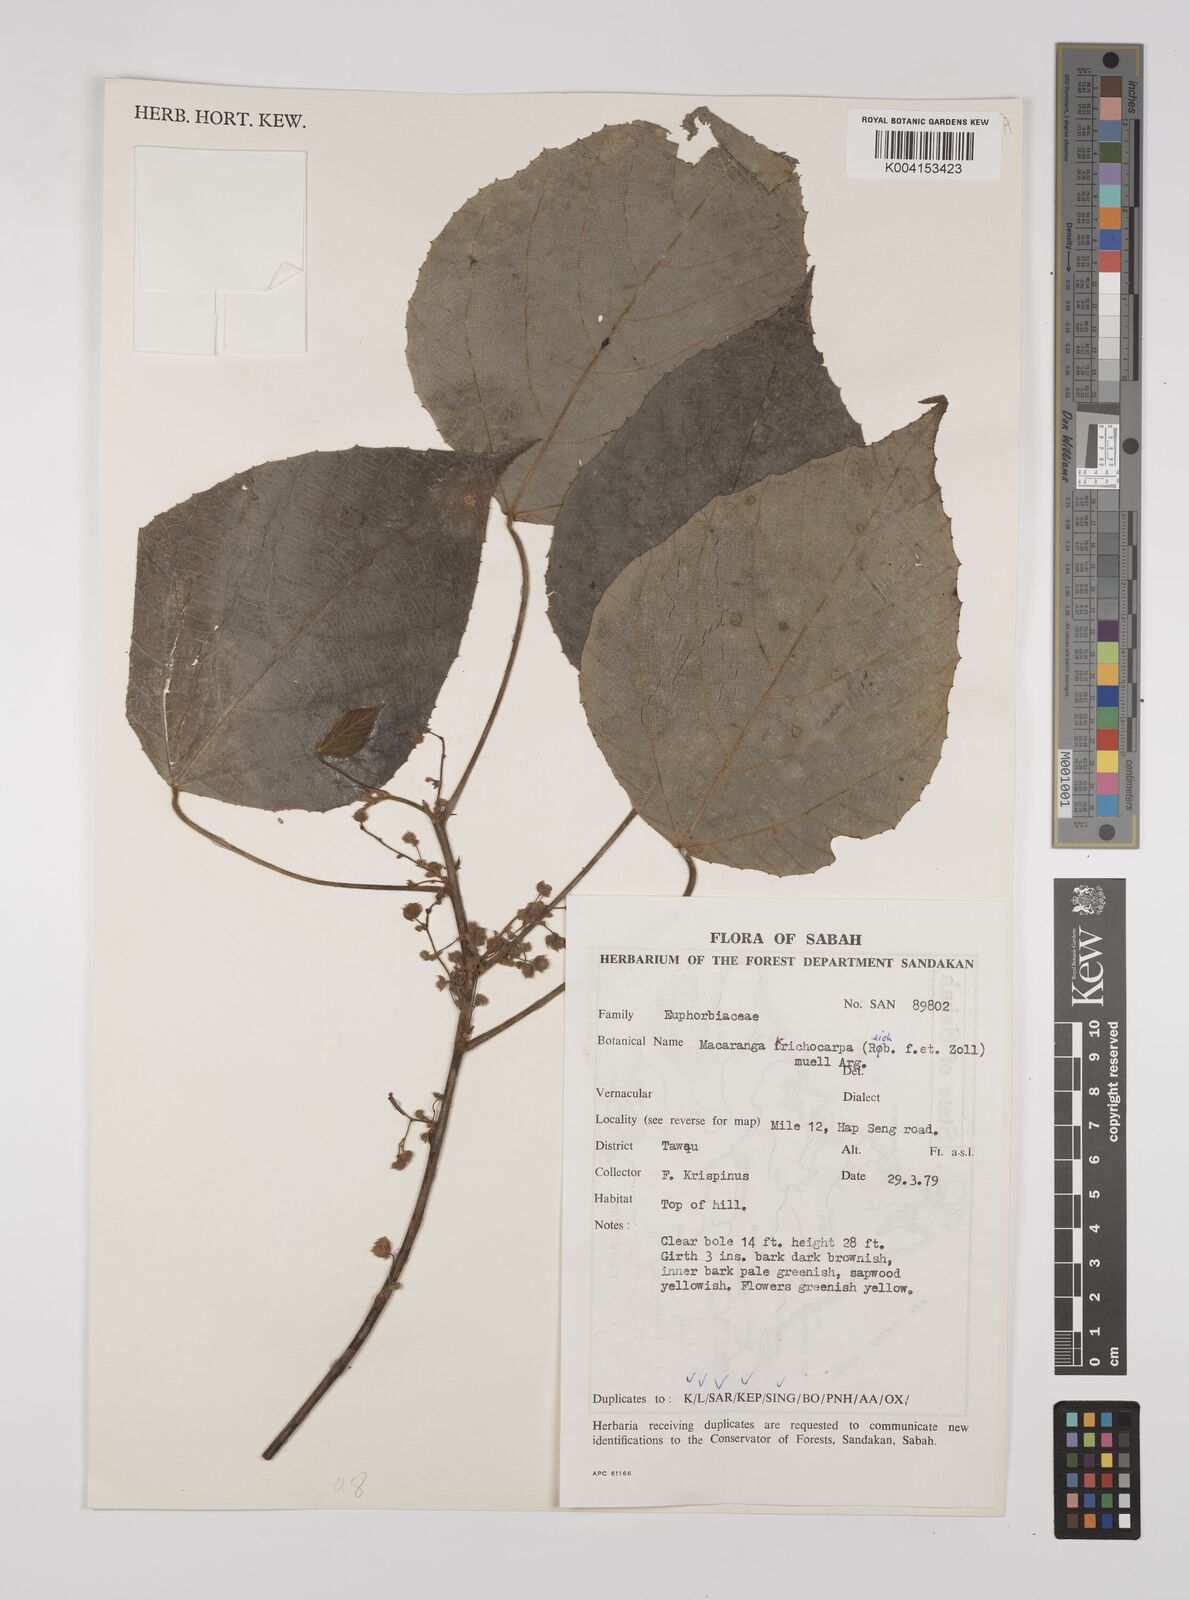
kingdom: Plantae
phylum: Tracheophyta
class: Magnoliopsida
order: Malpighiales
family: Euphorbiaceae
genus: Macaranga
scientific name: Macaranga trichocarpa
